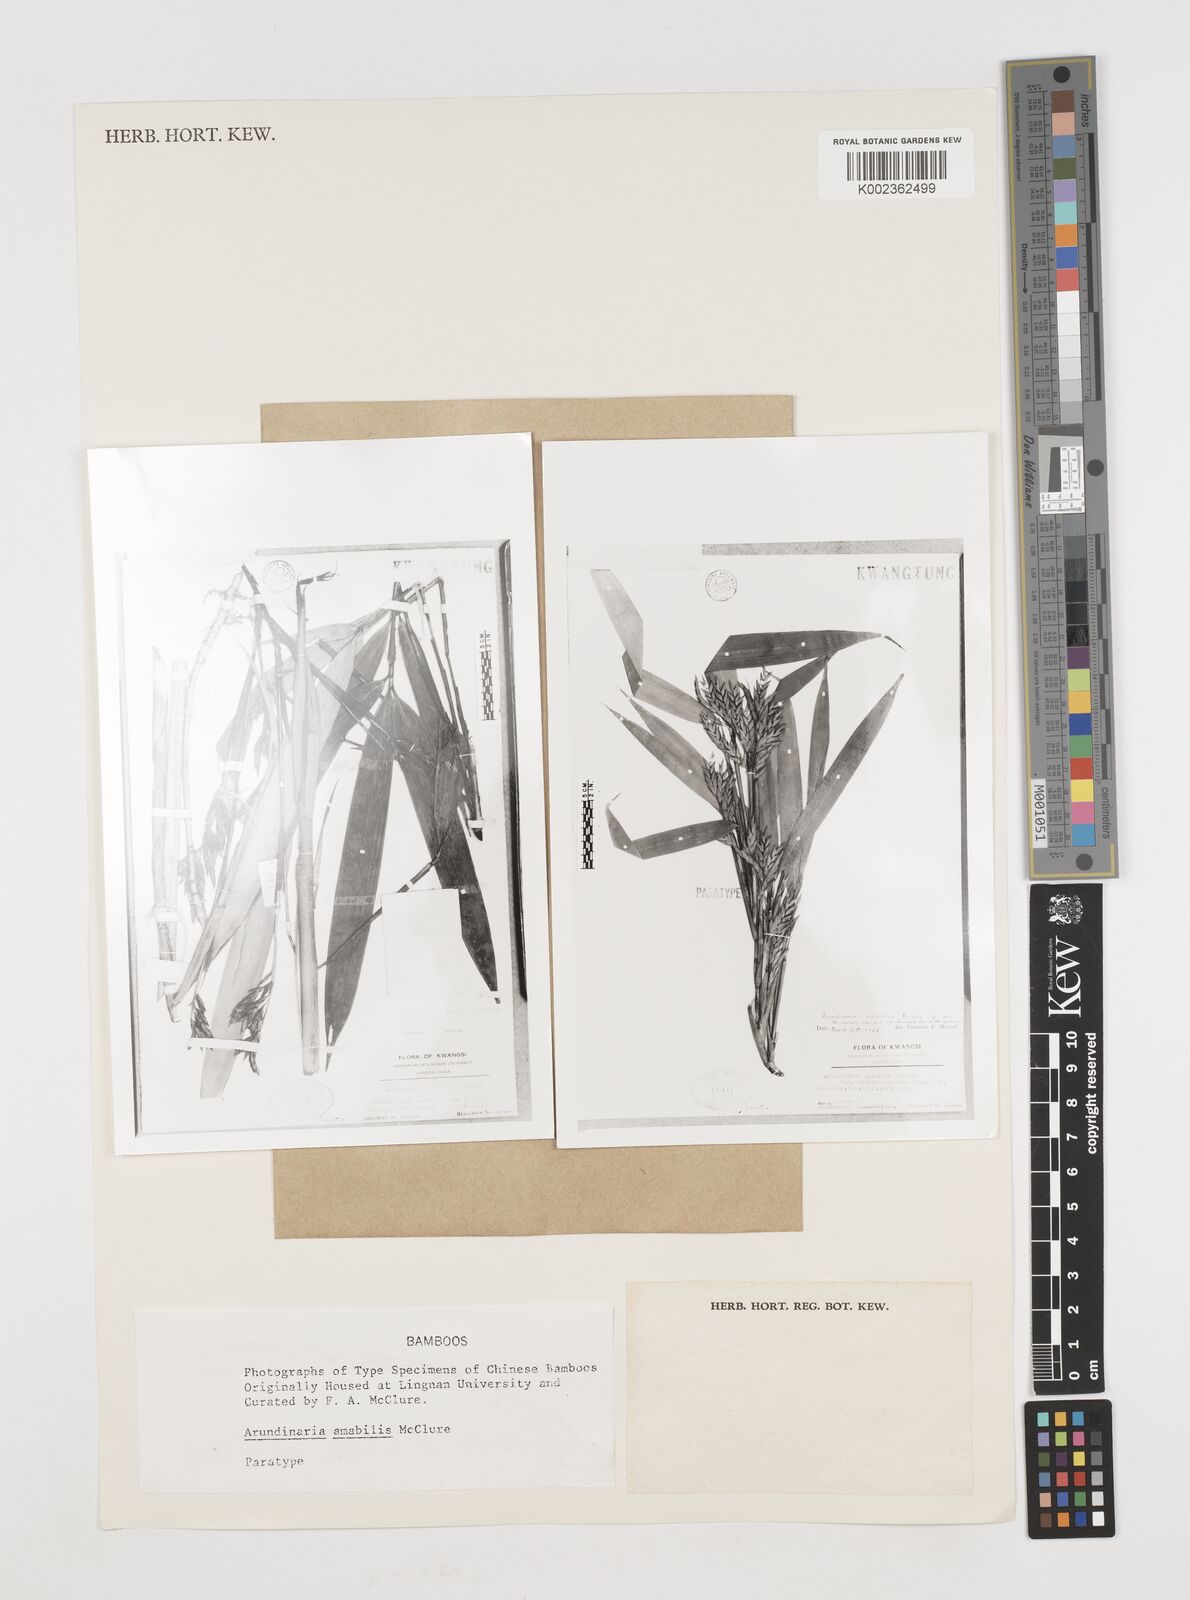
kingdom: Plantae
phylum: Tracheophyta
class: Liliopsida
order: Poales
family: Poaceae
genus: Pseudosasa
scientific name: Pseudosasa amabilis
